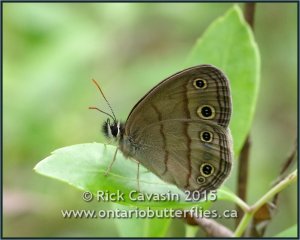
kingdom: Animalia
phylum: Arthropoda
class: Insecta
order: Lepidoptera
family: Nymphalidae
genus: Euptychia
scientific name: Euptychia cymela
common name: Little Wood Satyr
